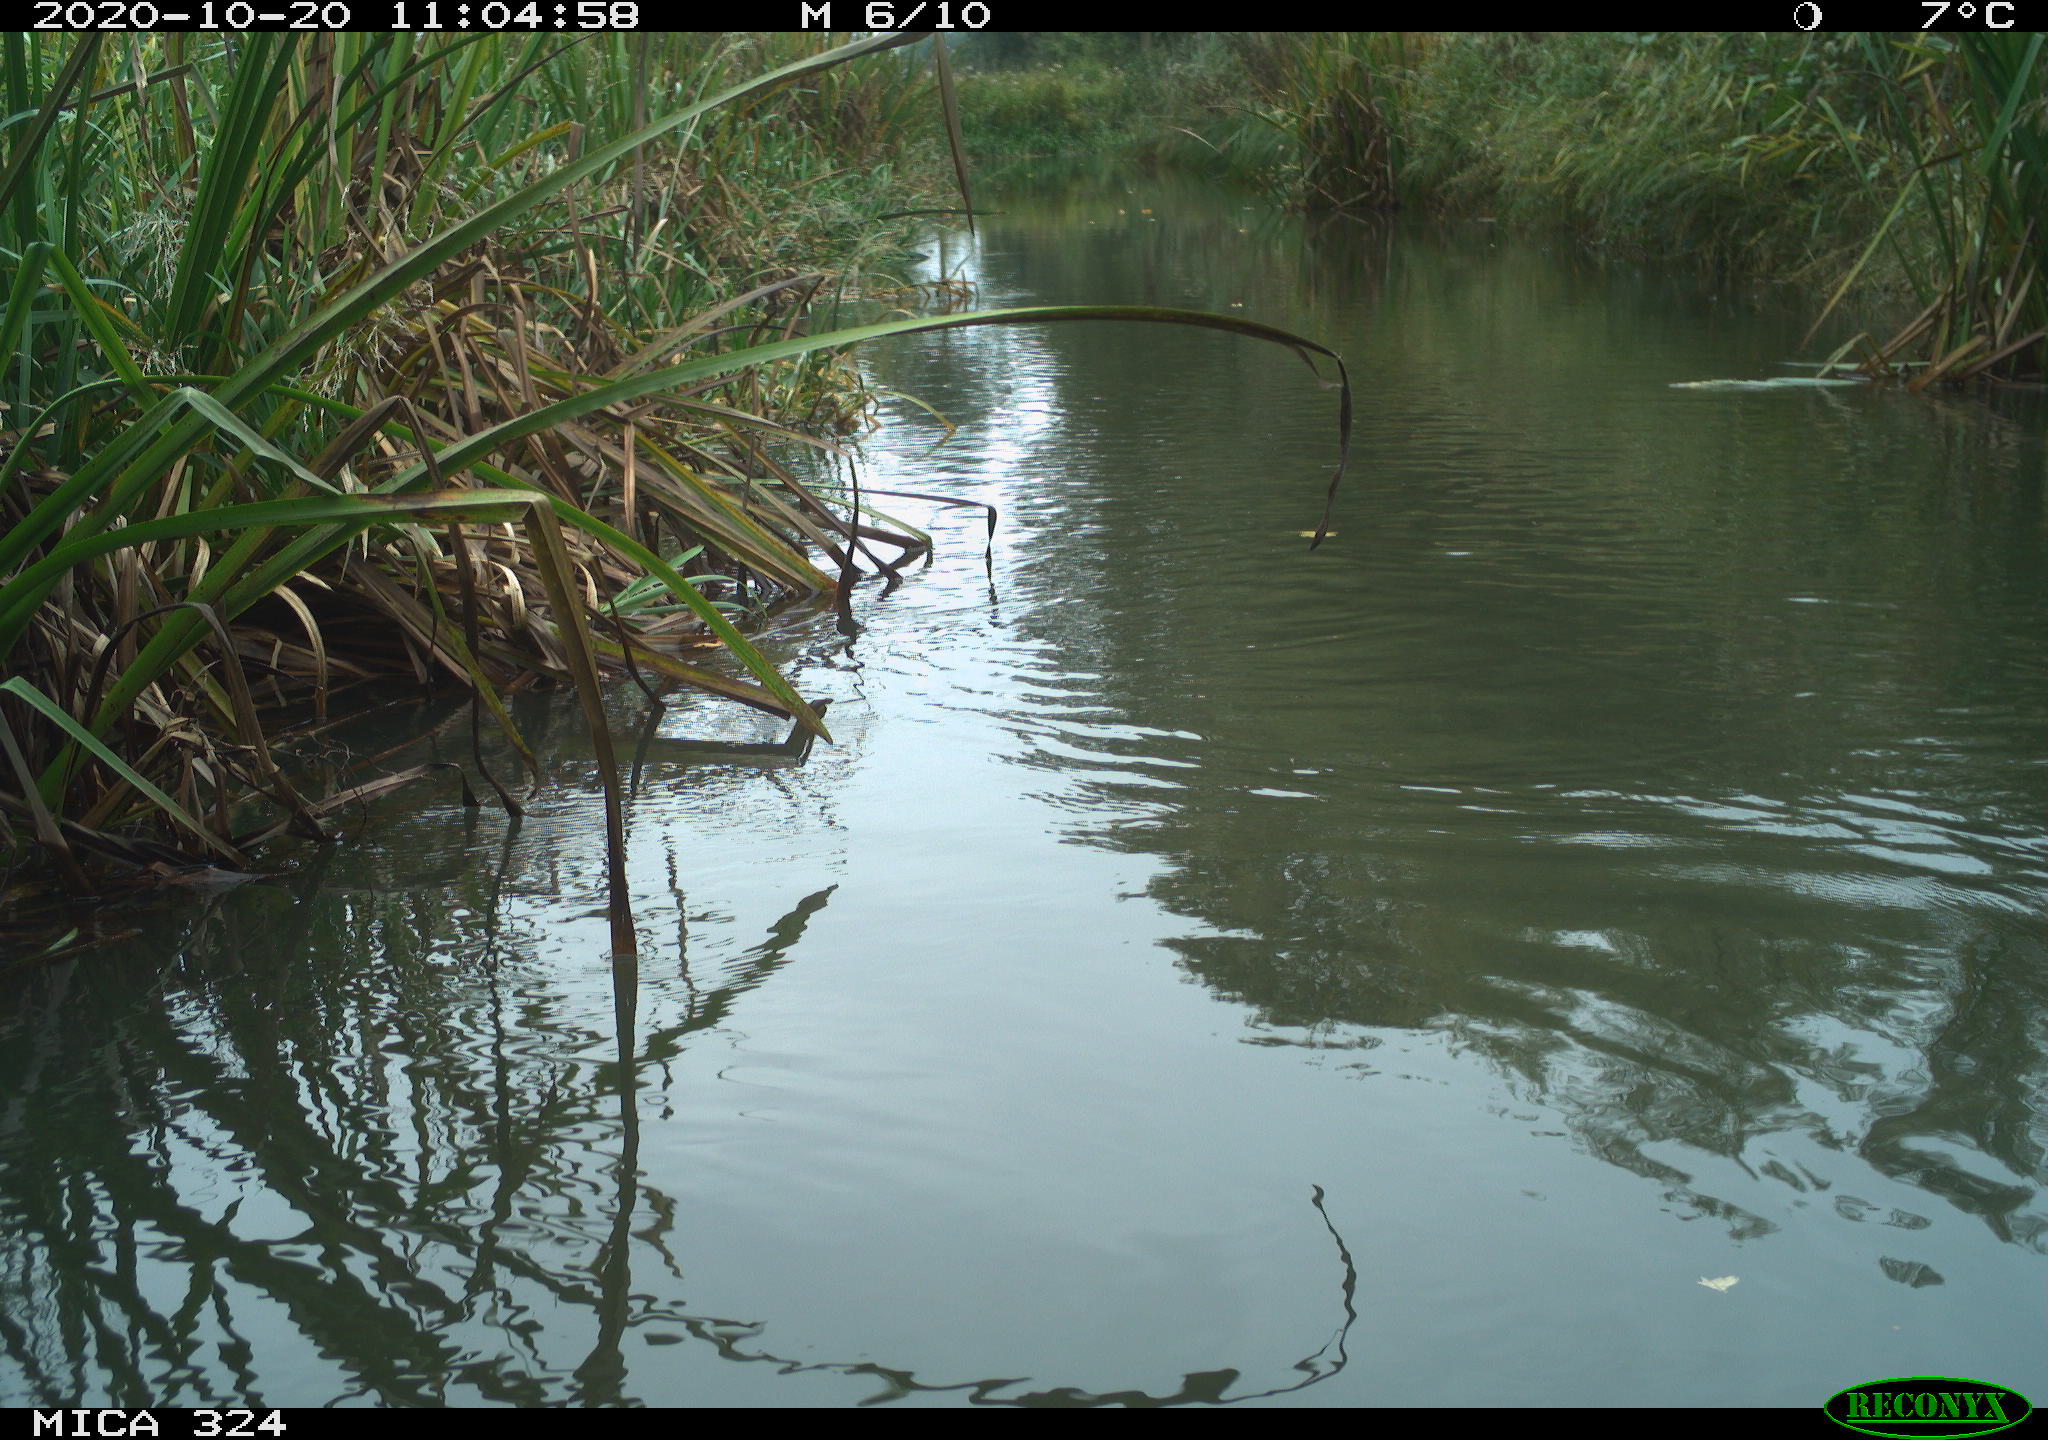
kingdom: Animalia
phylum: Chordata
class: Aves
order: Gruiformes
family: Rallidae
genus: Gallinula
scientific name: Gallinula chloropus
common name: Common moorhen
